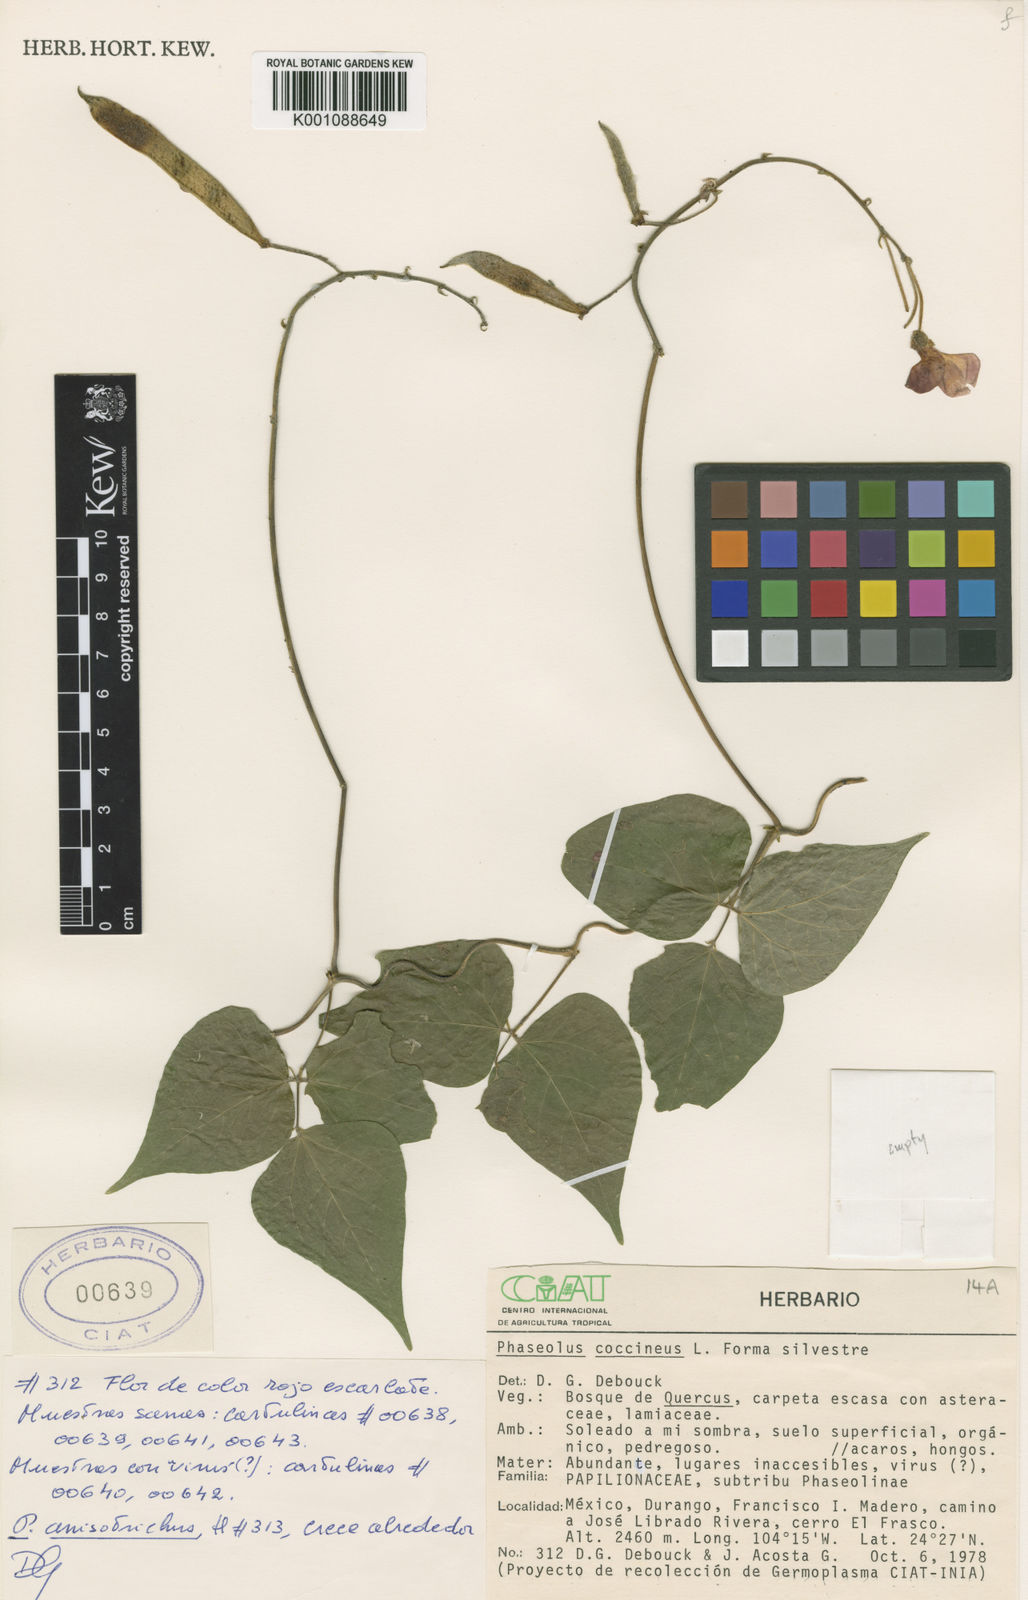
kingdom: Plantae
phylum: Tracheophyta
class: Magnoliopsida
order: Fabales
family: Fabaceae
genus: Phaseolus
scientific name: Phaseolus coccineus
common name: Runner bean
